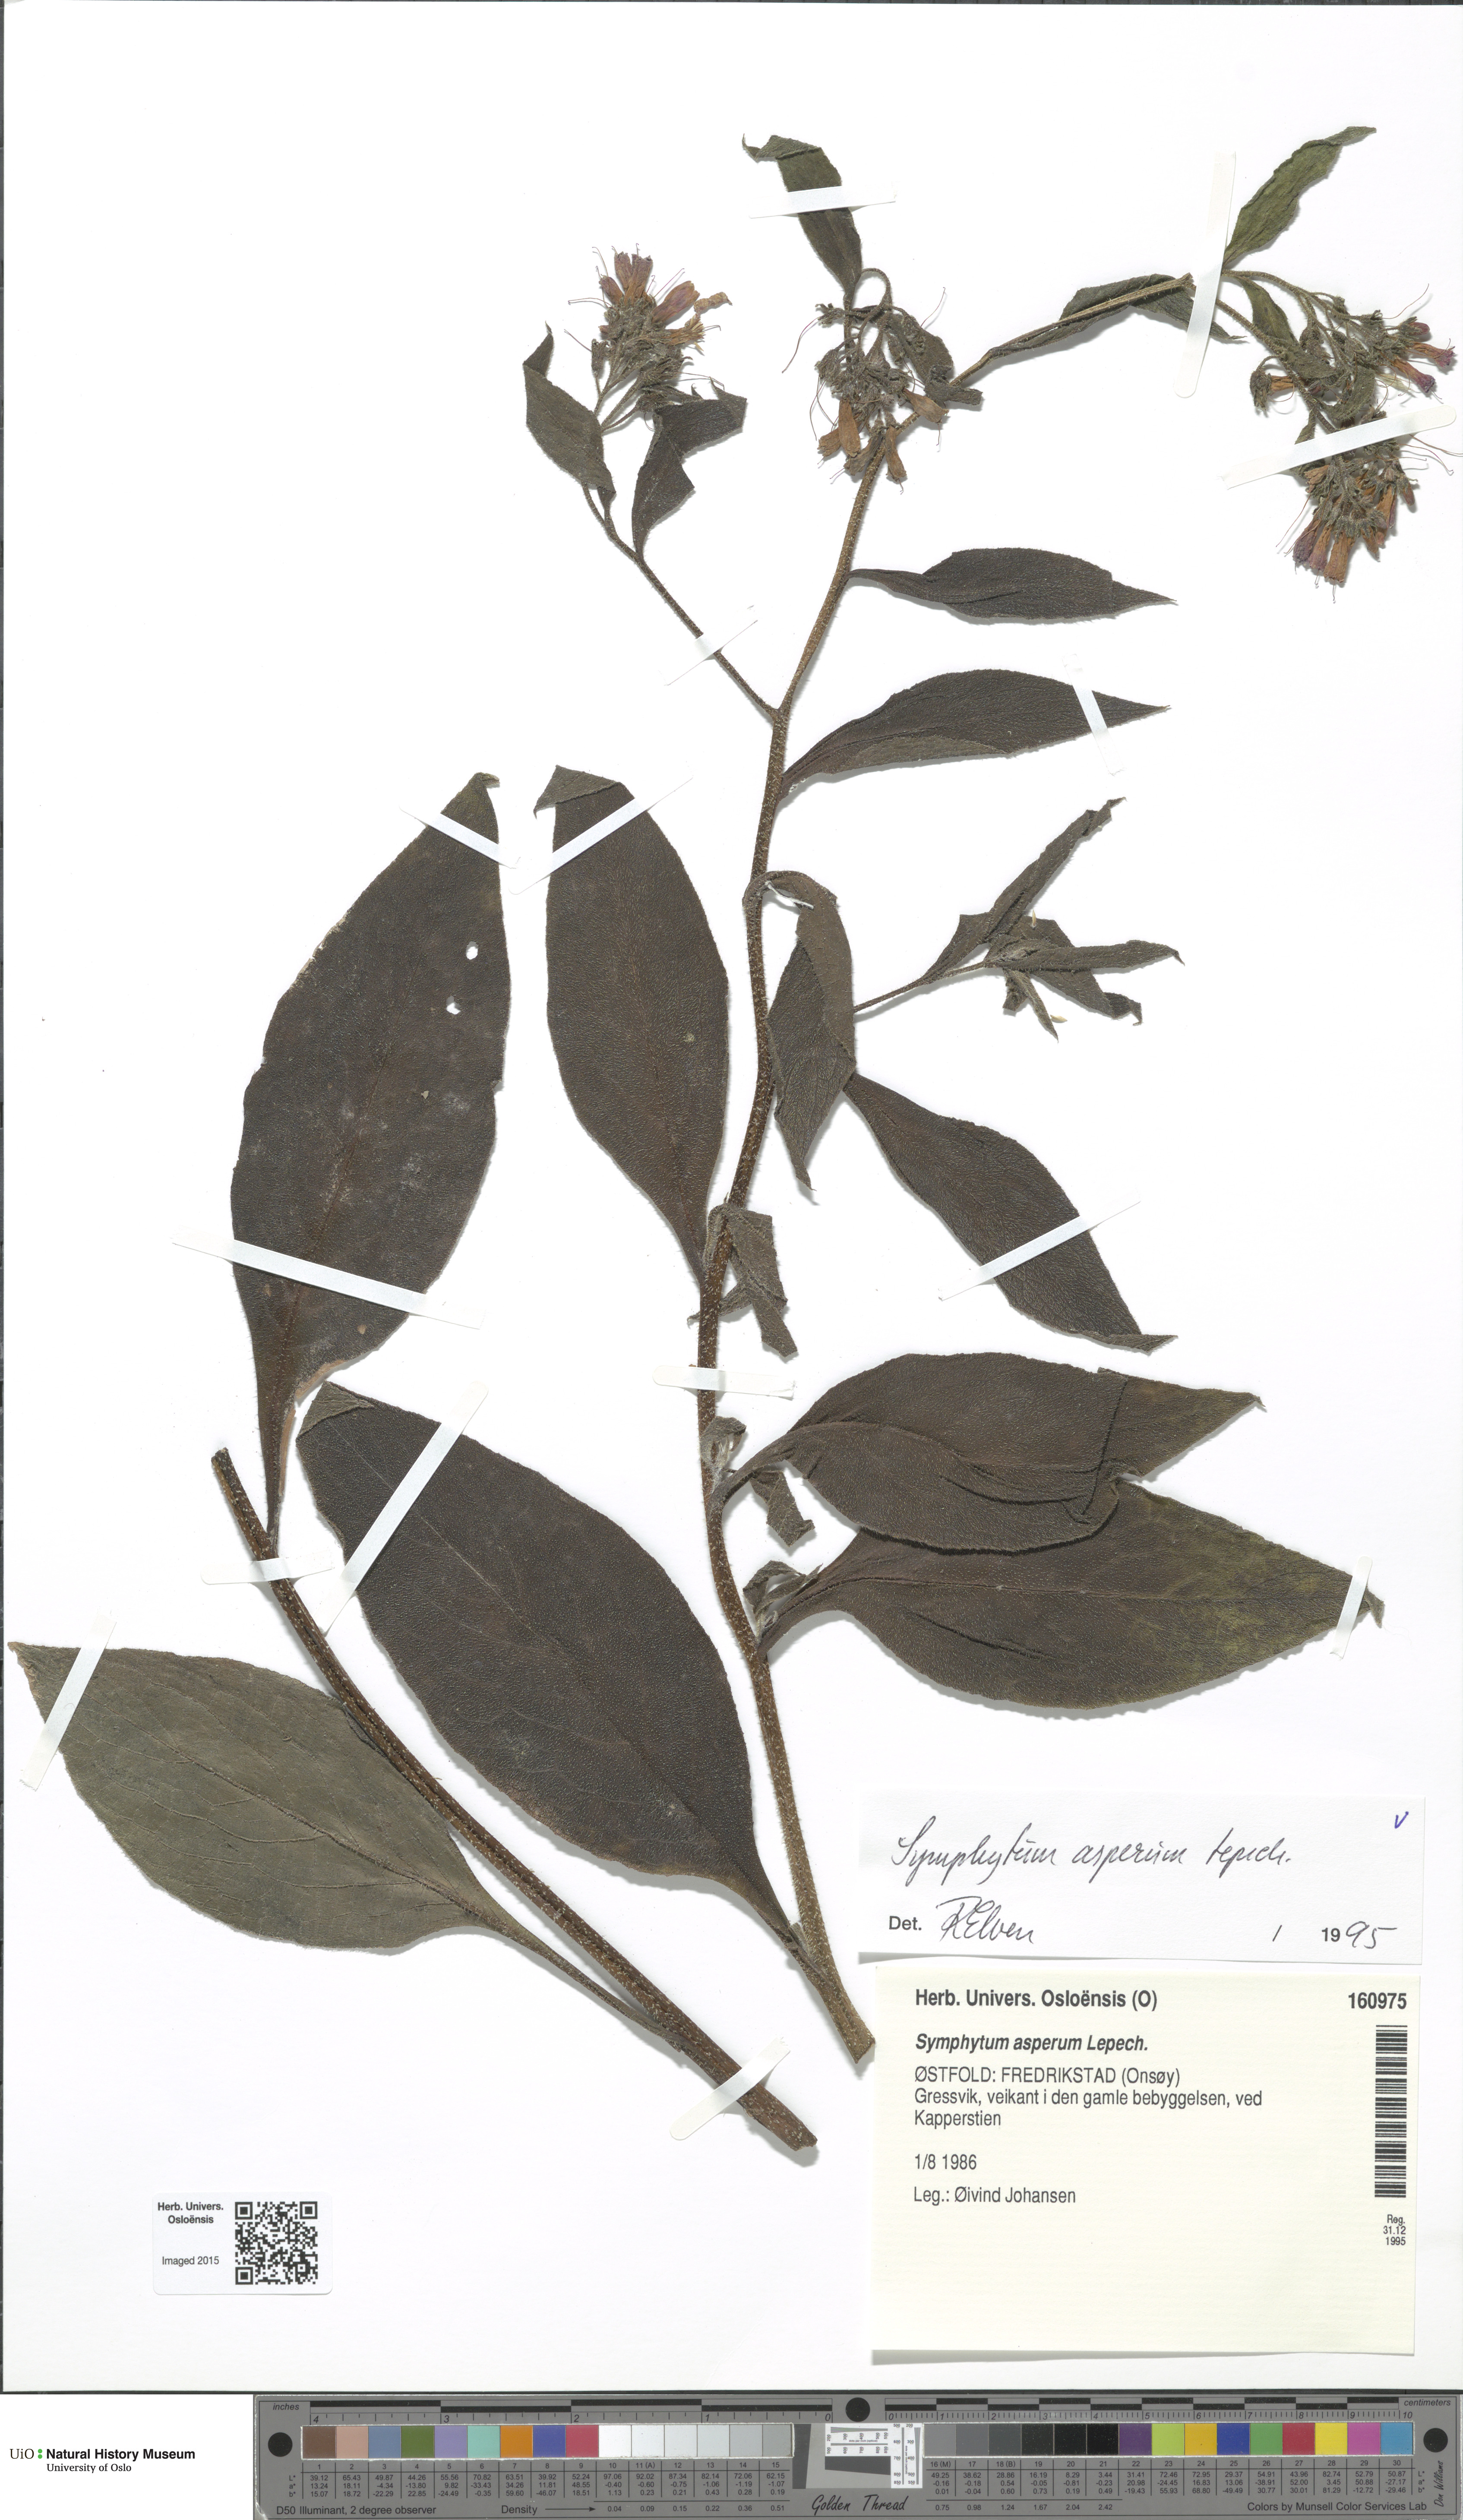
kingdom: Plantae
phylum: Tracheophyta
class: Magnoliopsida
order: Boraginales
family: Boraginaceae
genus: Symphytum
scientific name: Symphytum asperum
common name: Prickly comfrey
